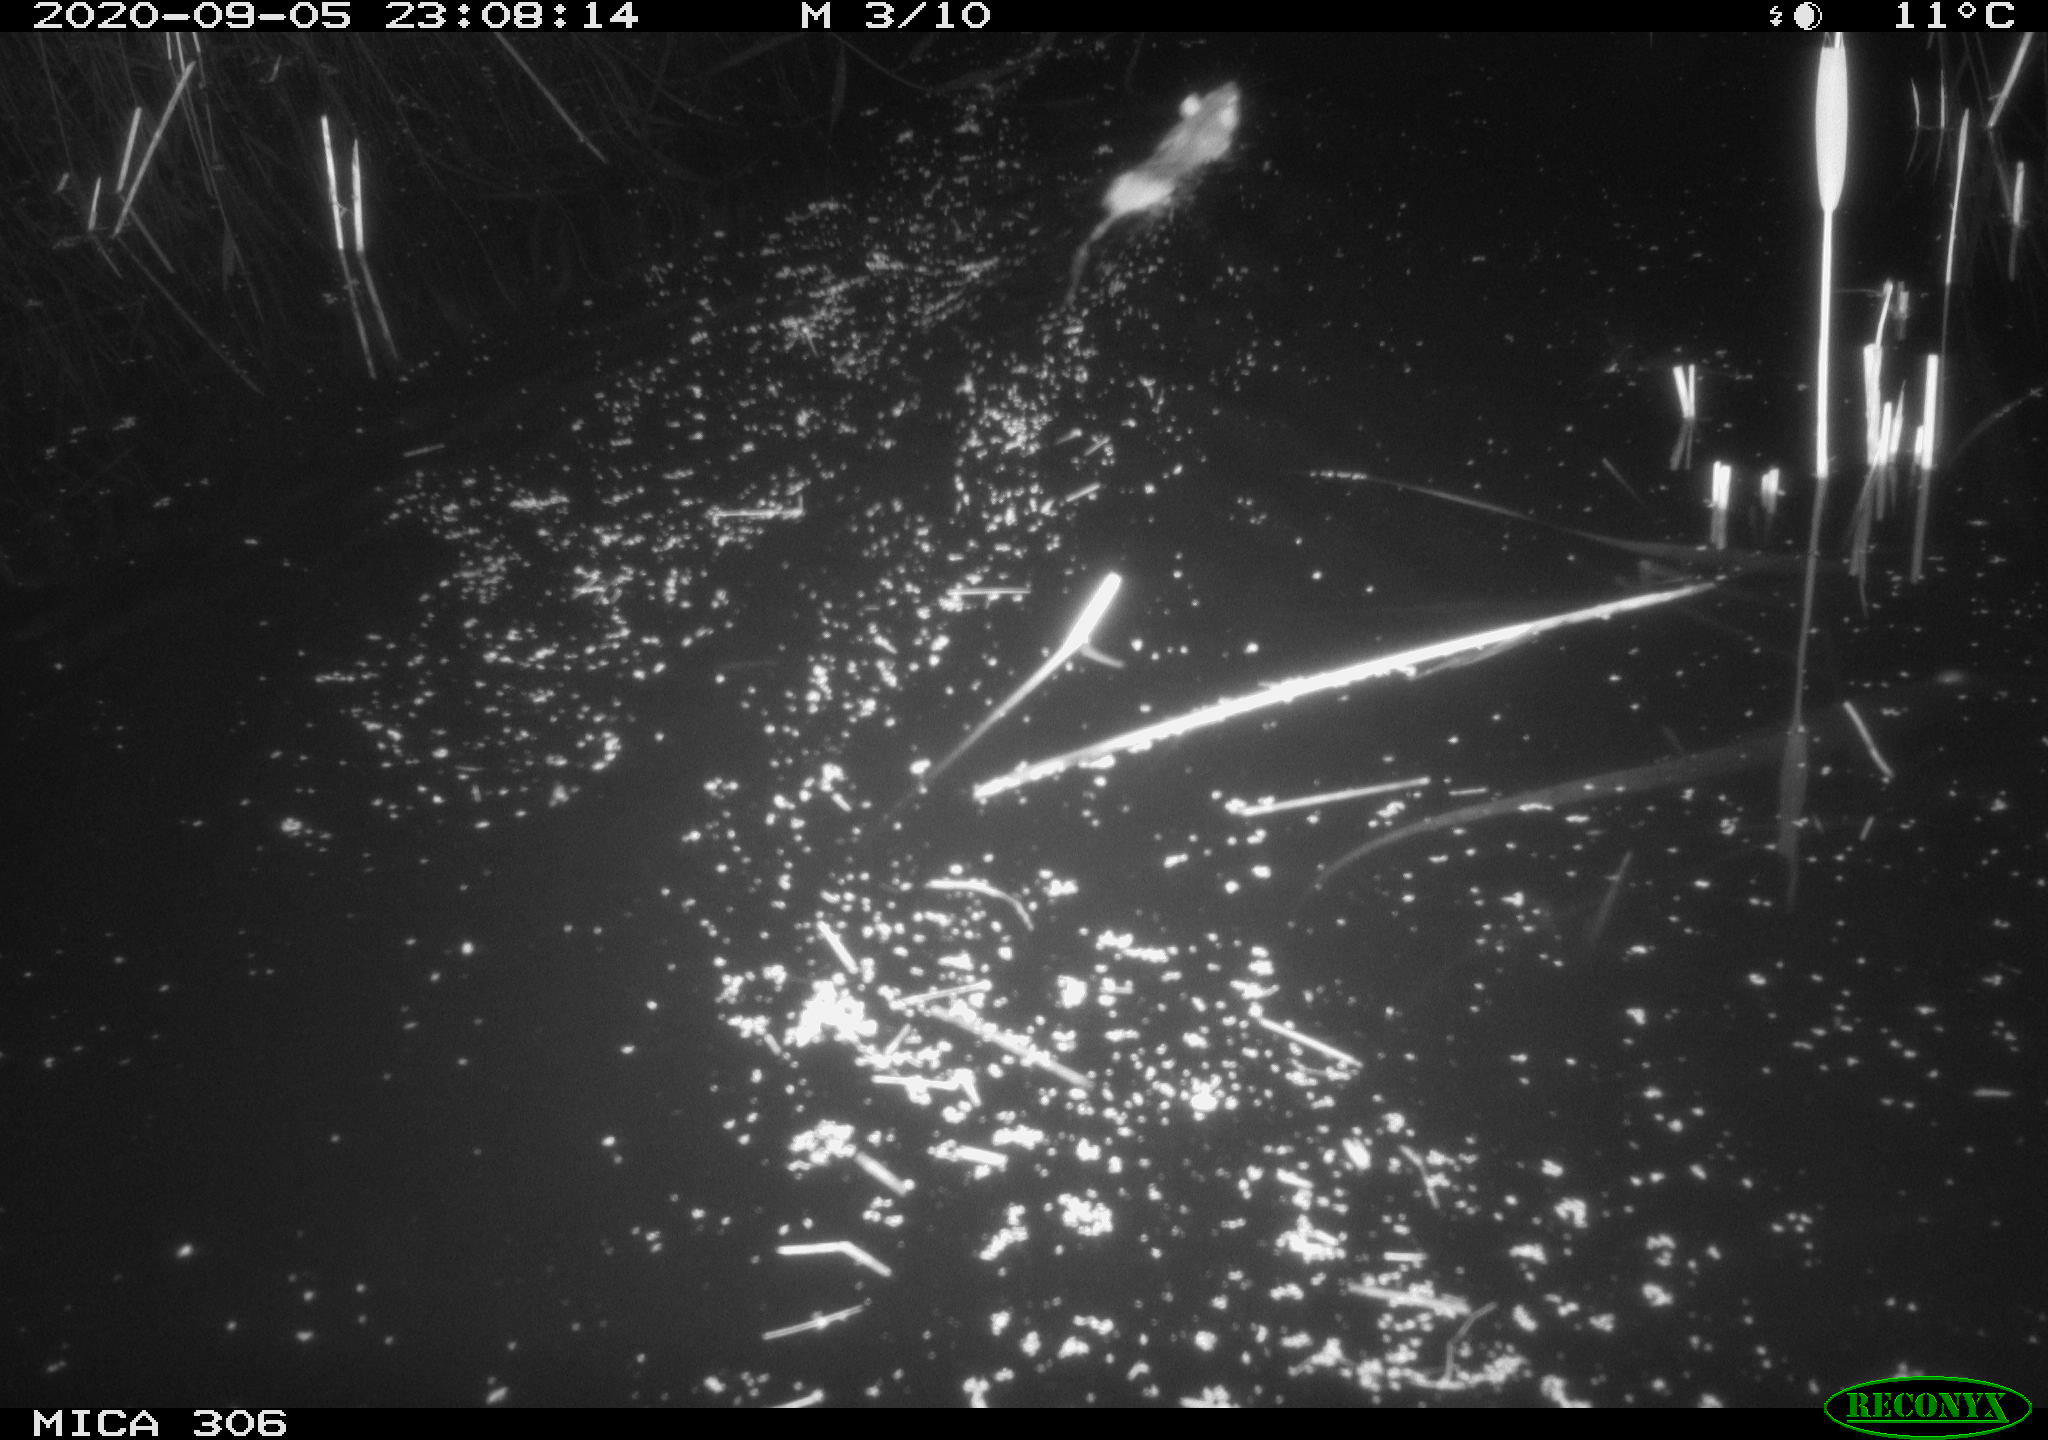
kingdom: Animalia
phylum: Chordata
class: Mammalia
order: Rodentia
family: Muridae
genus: Rattus
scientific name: Rattus norvegicus
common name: Brown rat
